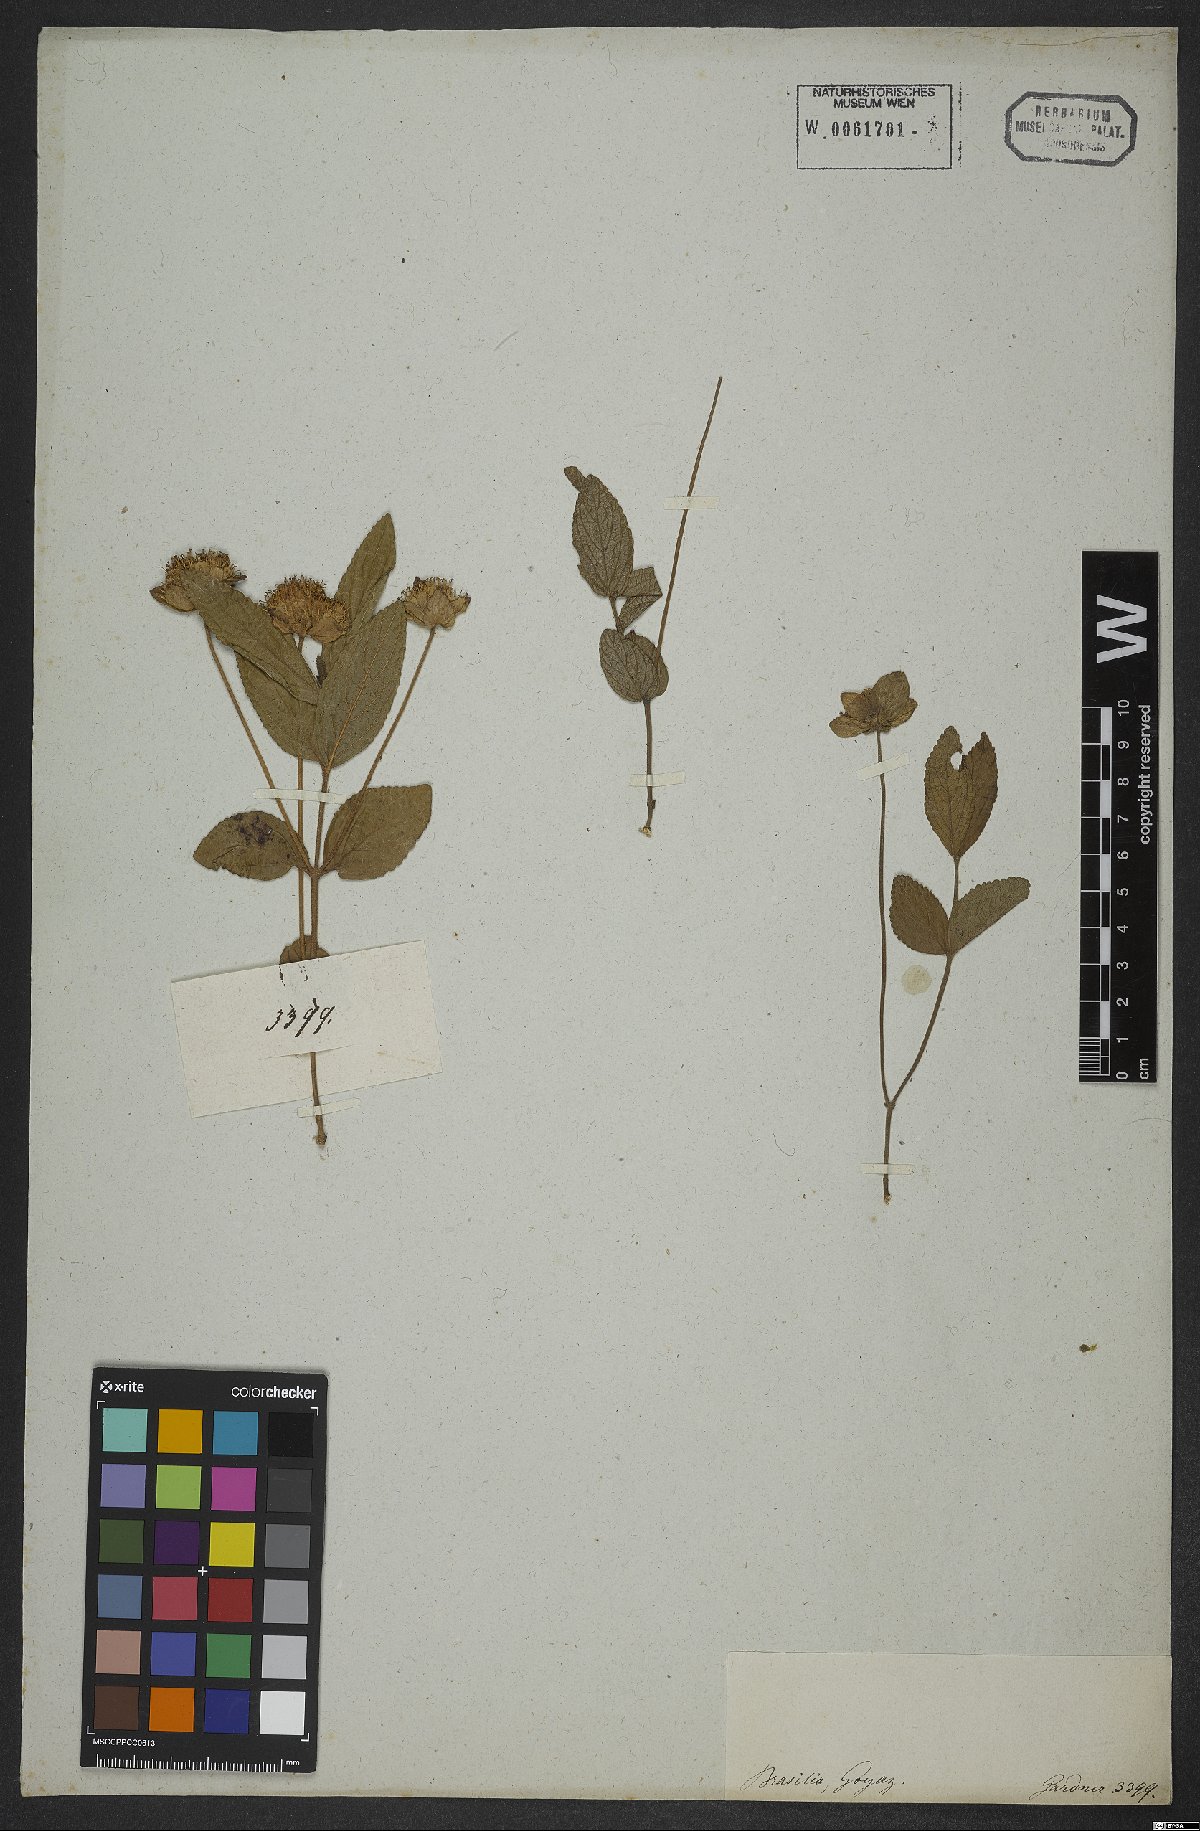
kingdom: Plantae
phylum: Tracheophyta
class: Magnoliopsida
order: Lamiales
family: Lamiaceae
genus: Hyptis
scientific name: Hyptis pusilla
